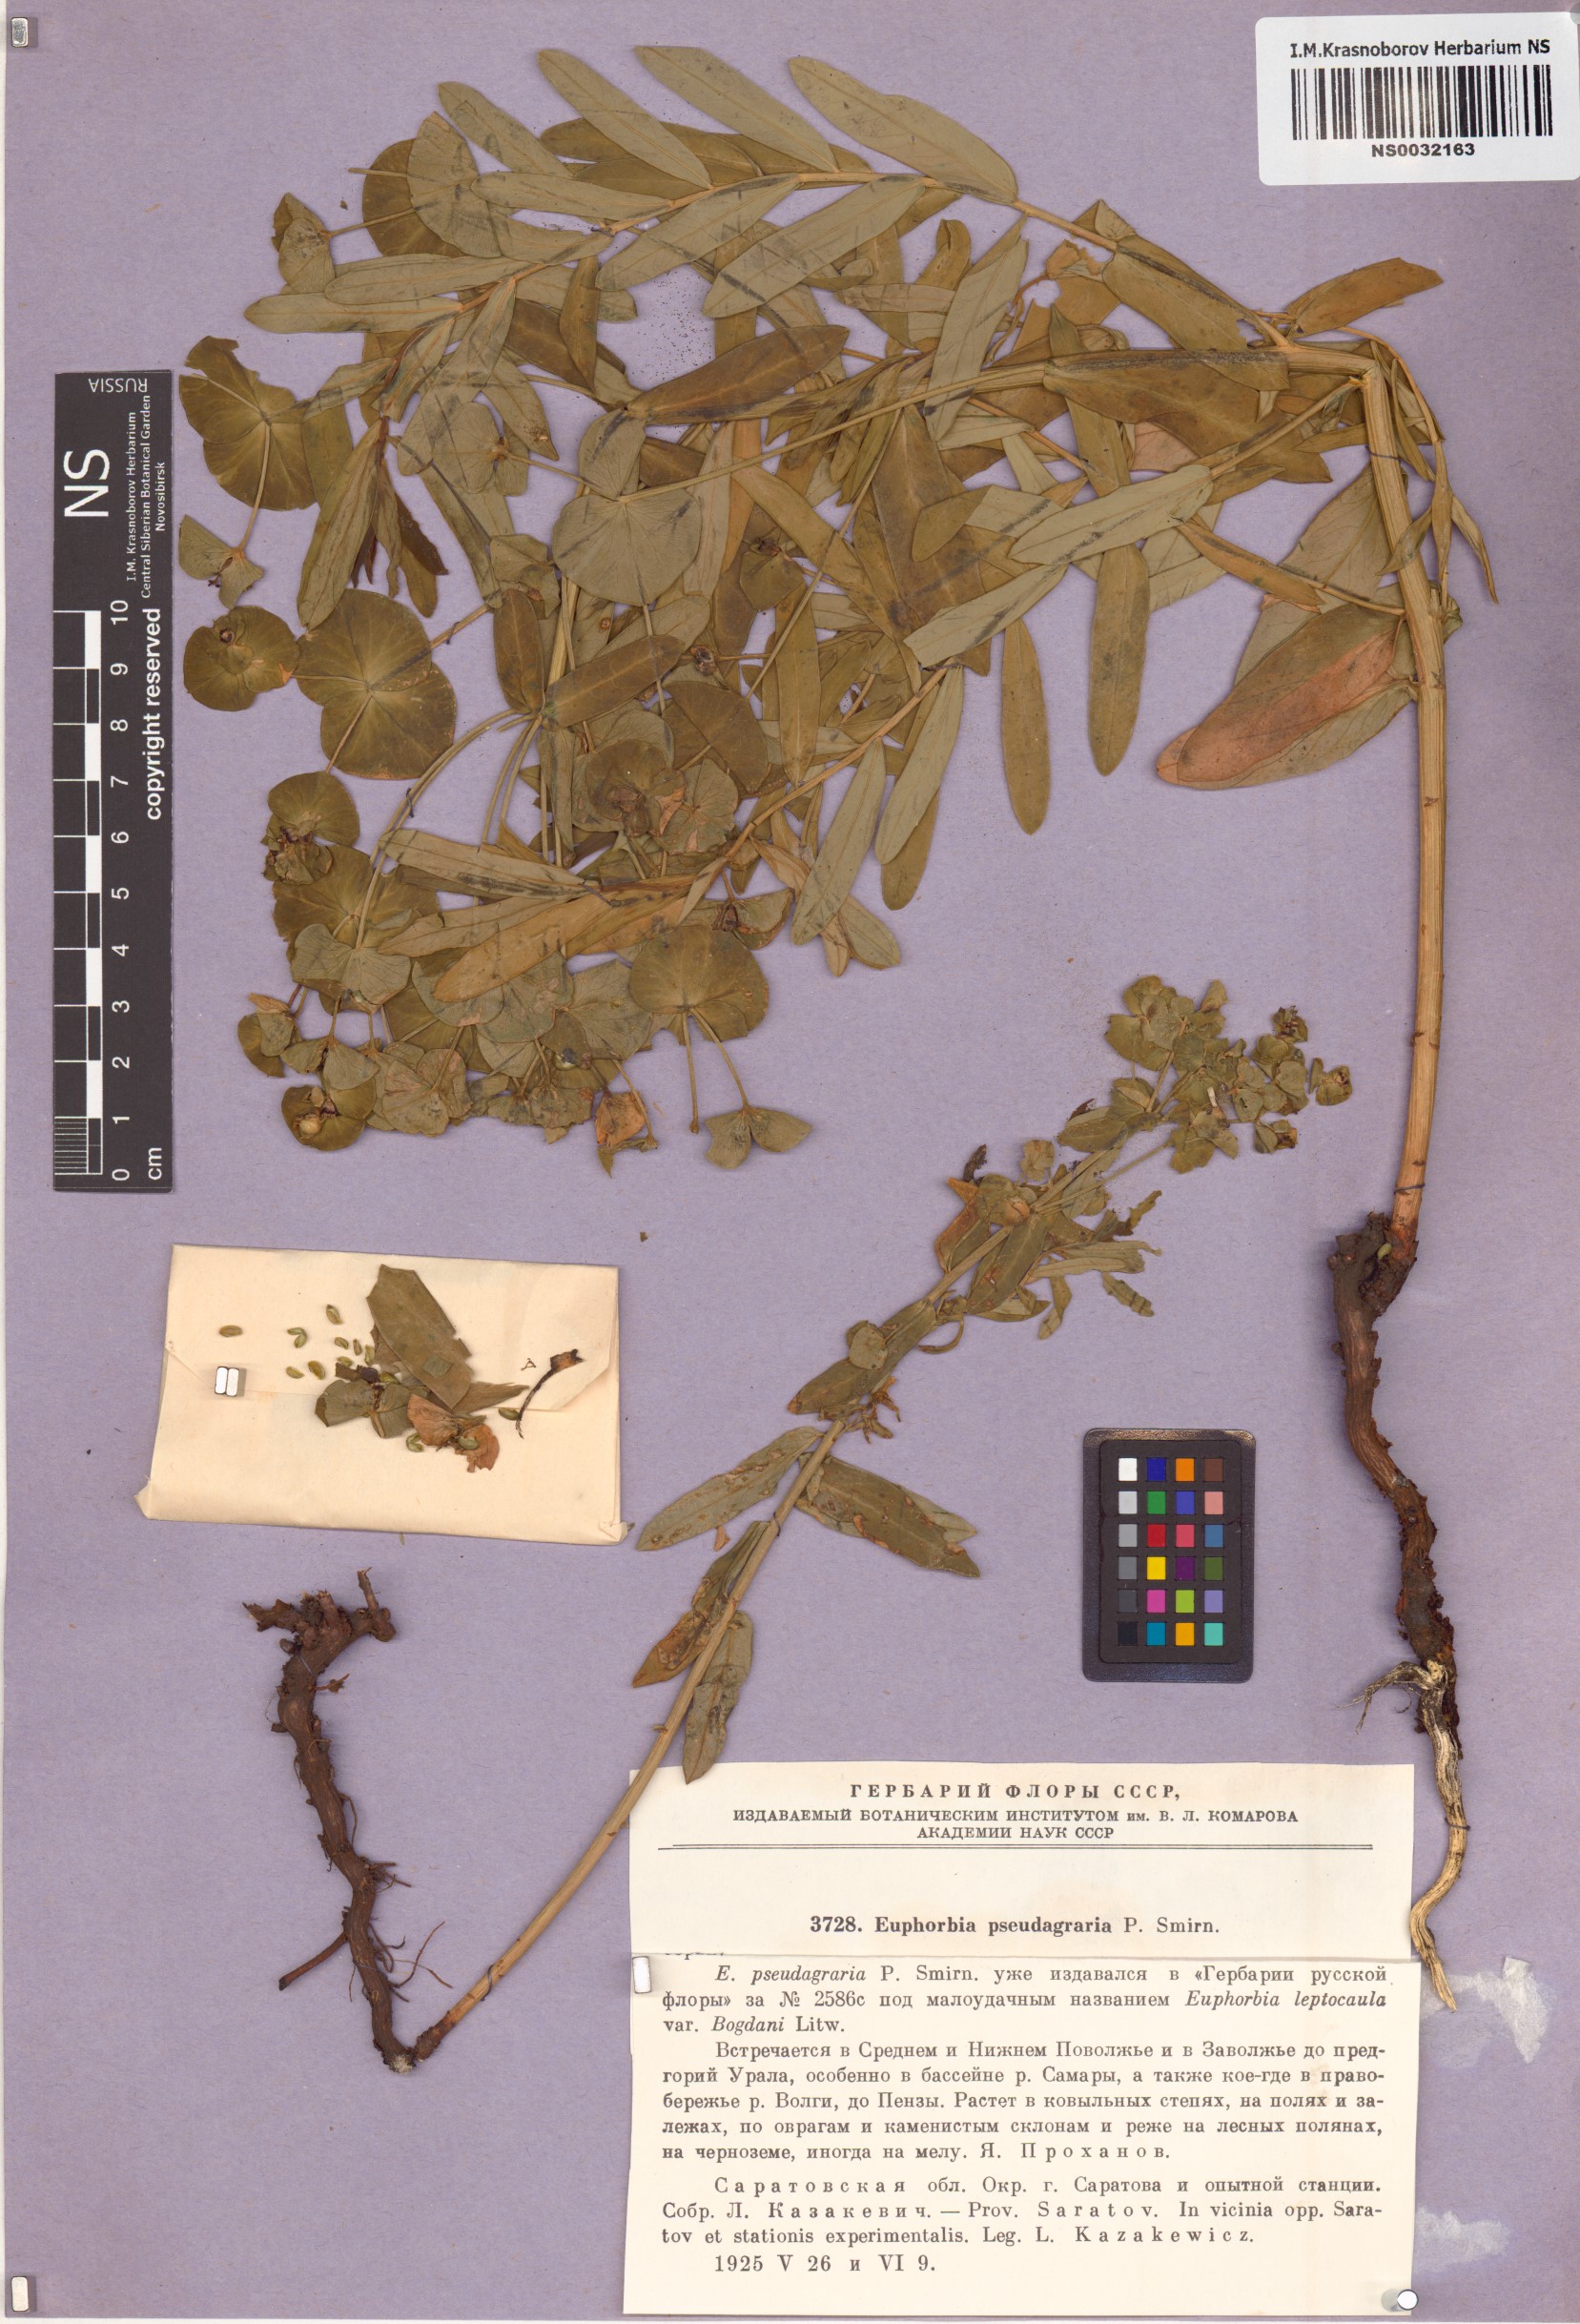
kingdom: Plantae
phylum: Tracheophyta
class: Magnoliopsida
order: Malpighiales
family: Euphorbiaceae
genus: Euphorbia
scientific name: Euphorbia esula
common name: Leafy spurge
